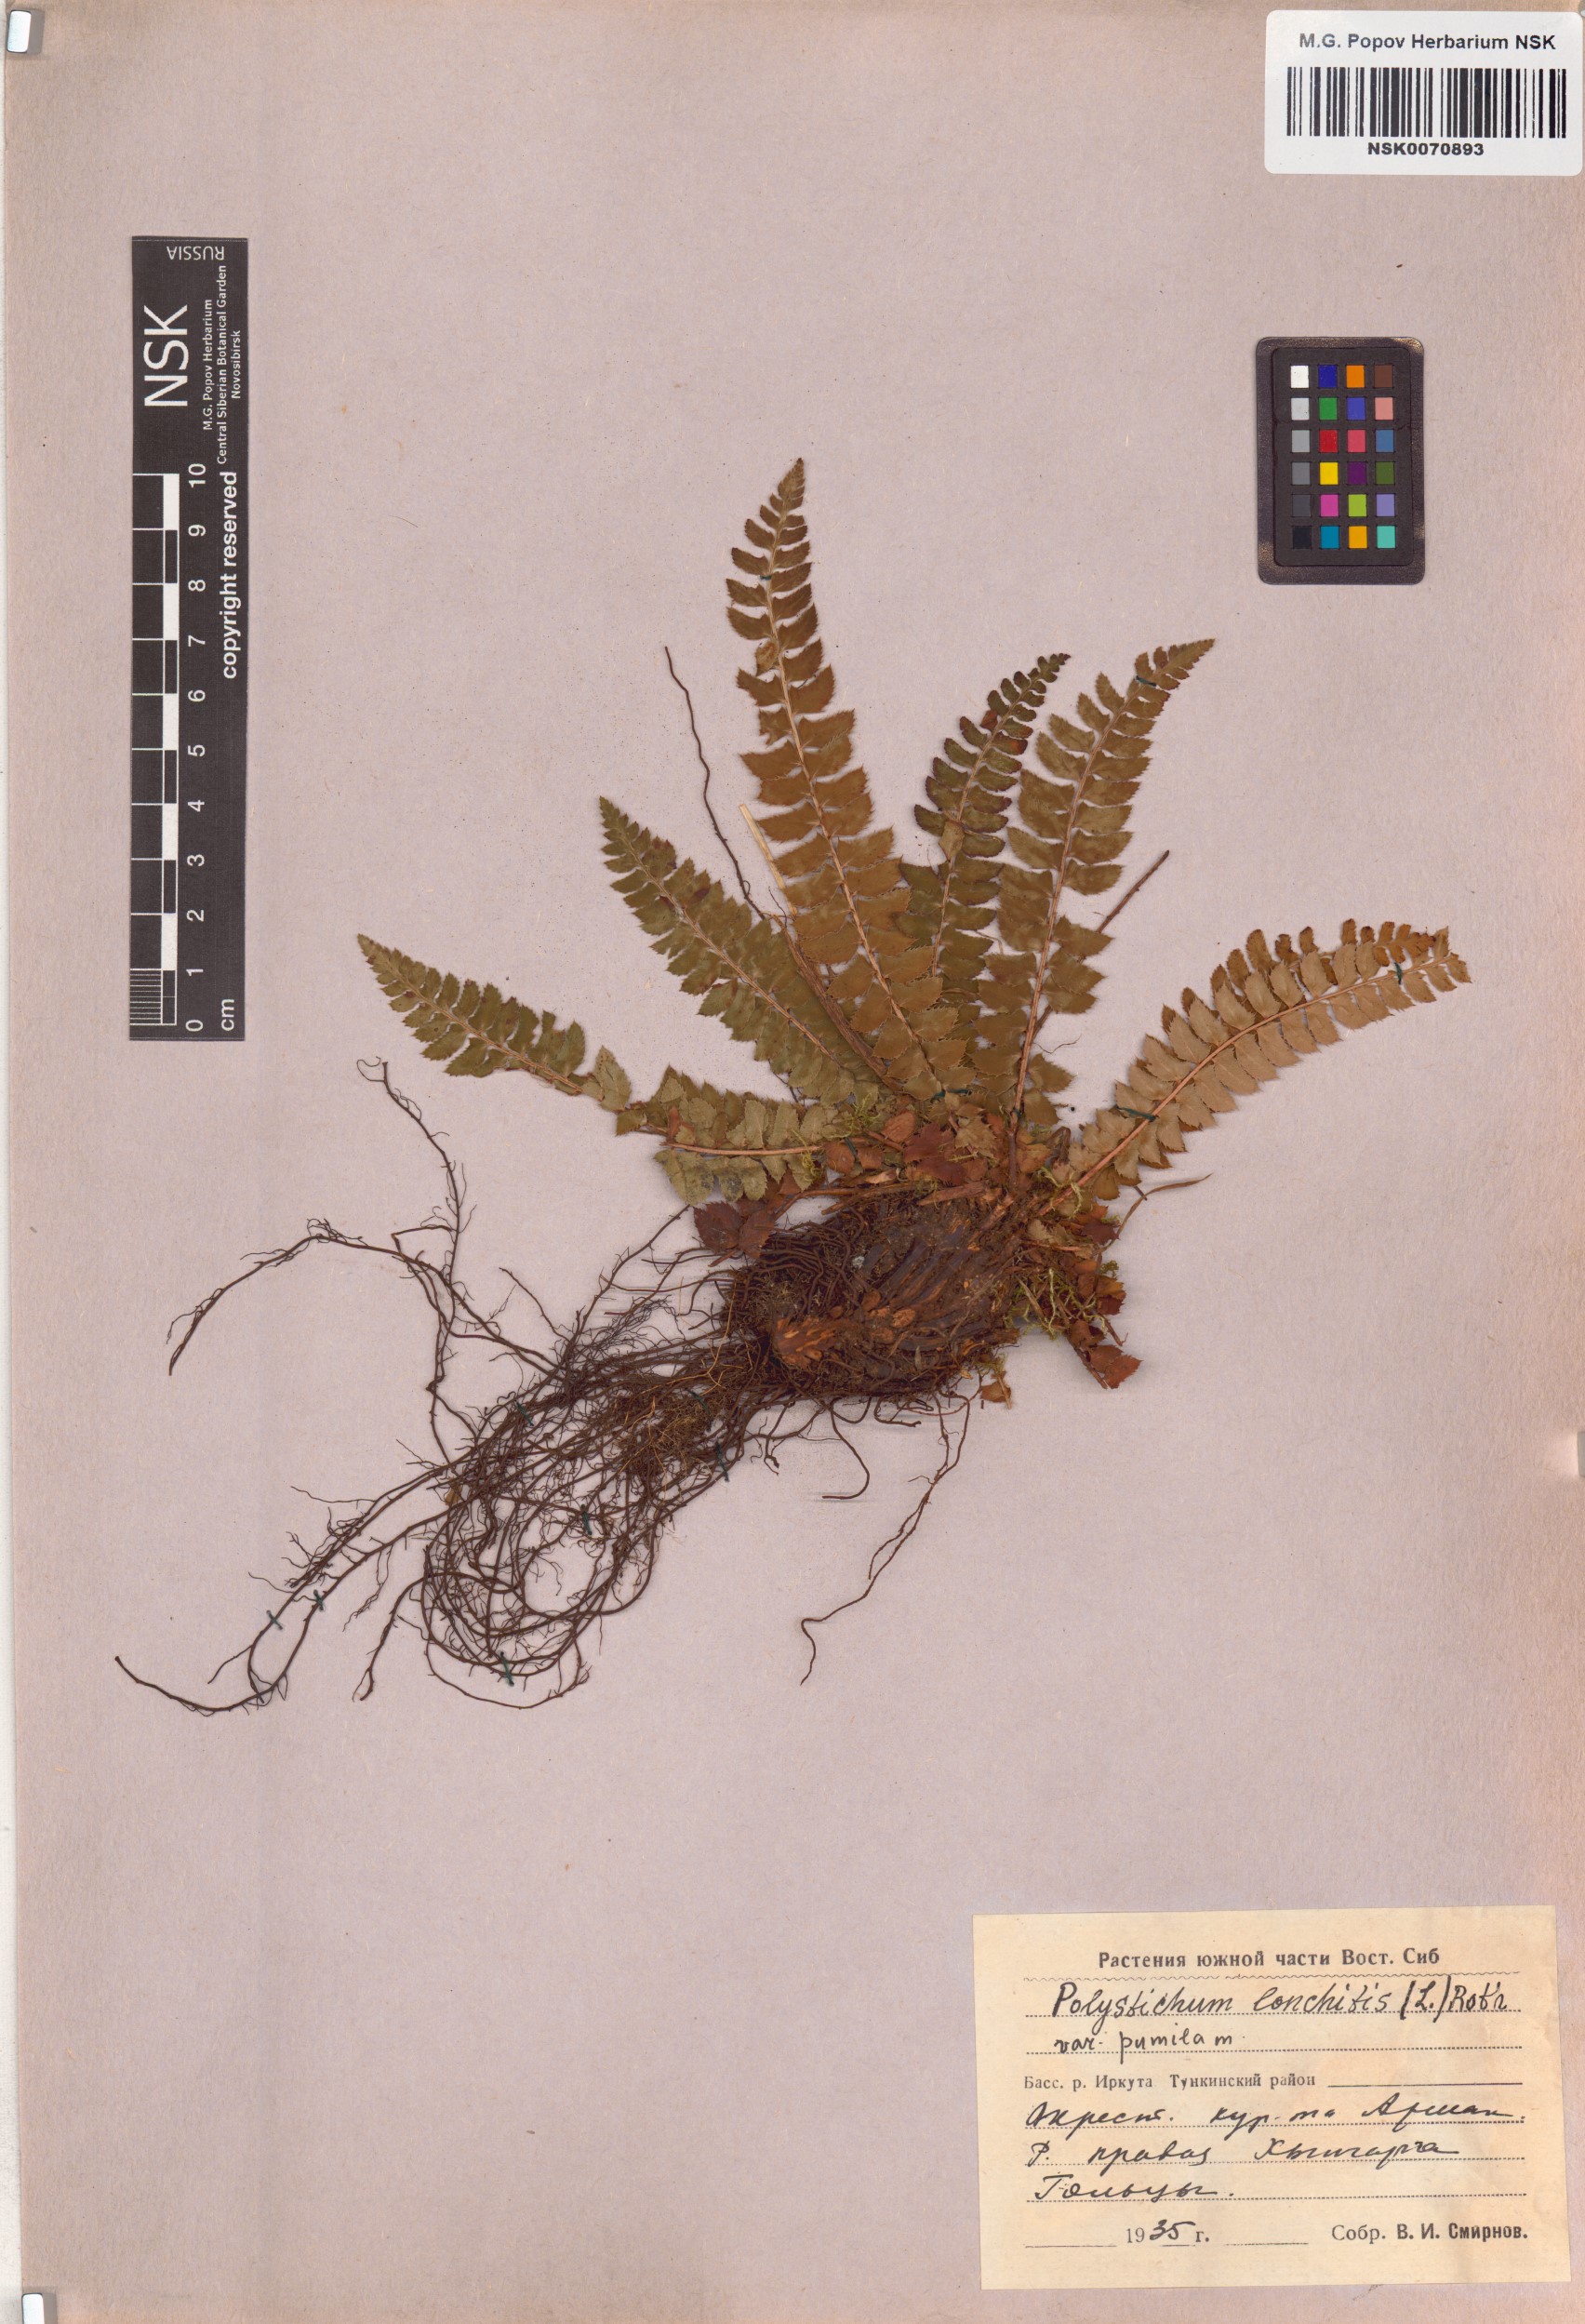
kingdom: Plantae
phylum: Tracheophyta
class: Polypodiopsida
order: Polypodiales
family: Dryopteridaceae
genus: Polystichum
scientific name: Polystichum lonchitis
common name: Holly fern
